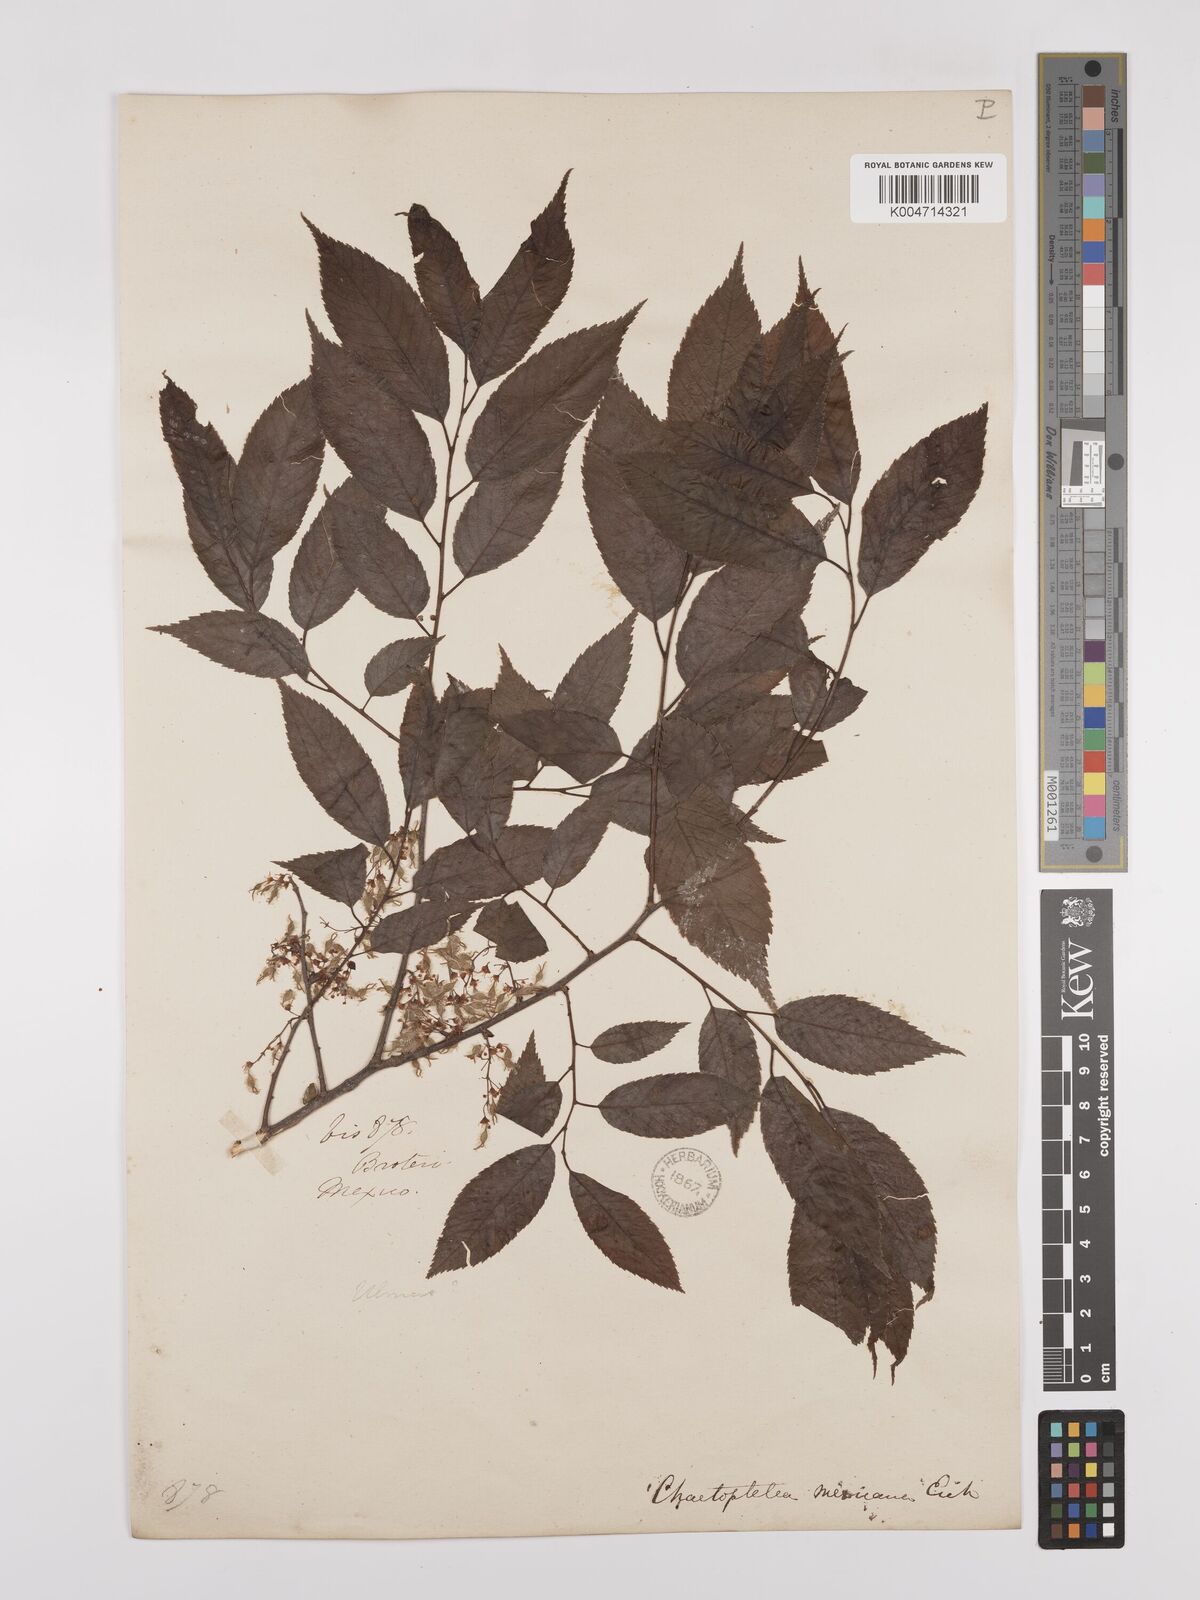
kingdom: Plantae
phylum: Tracheophyta
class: Magnoliopsida
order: Rosales
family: Ulmaceae
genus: Ulmus
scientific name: Ulmus mexicana
